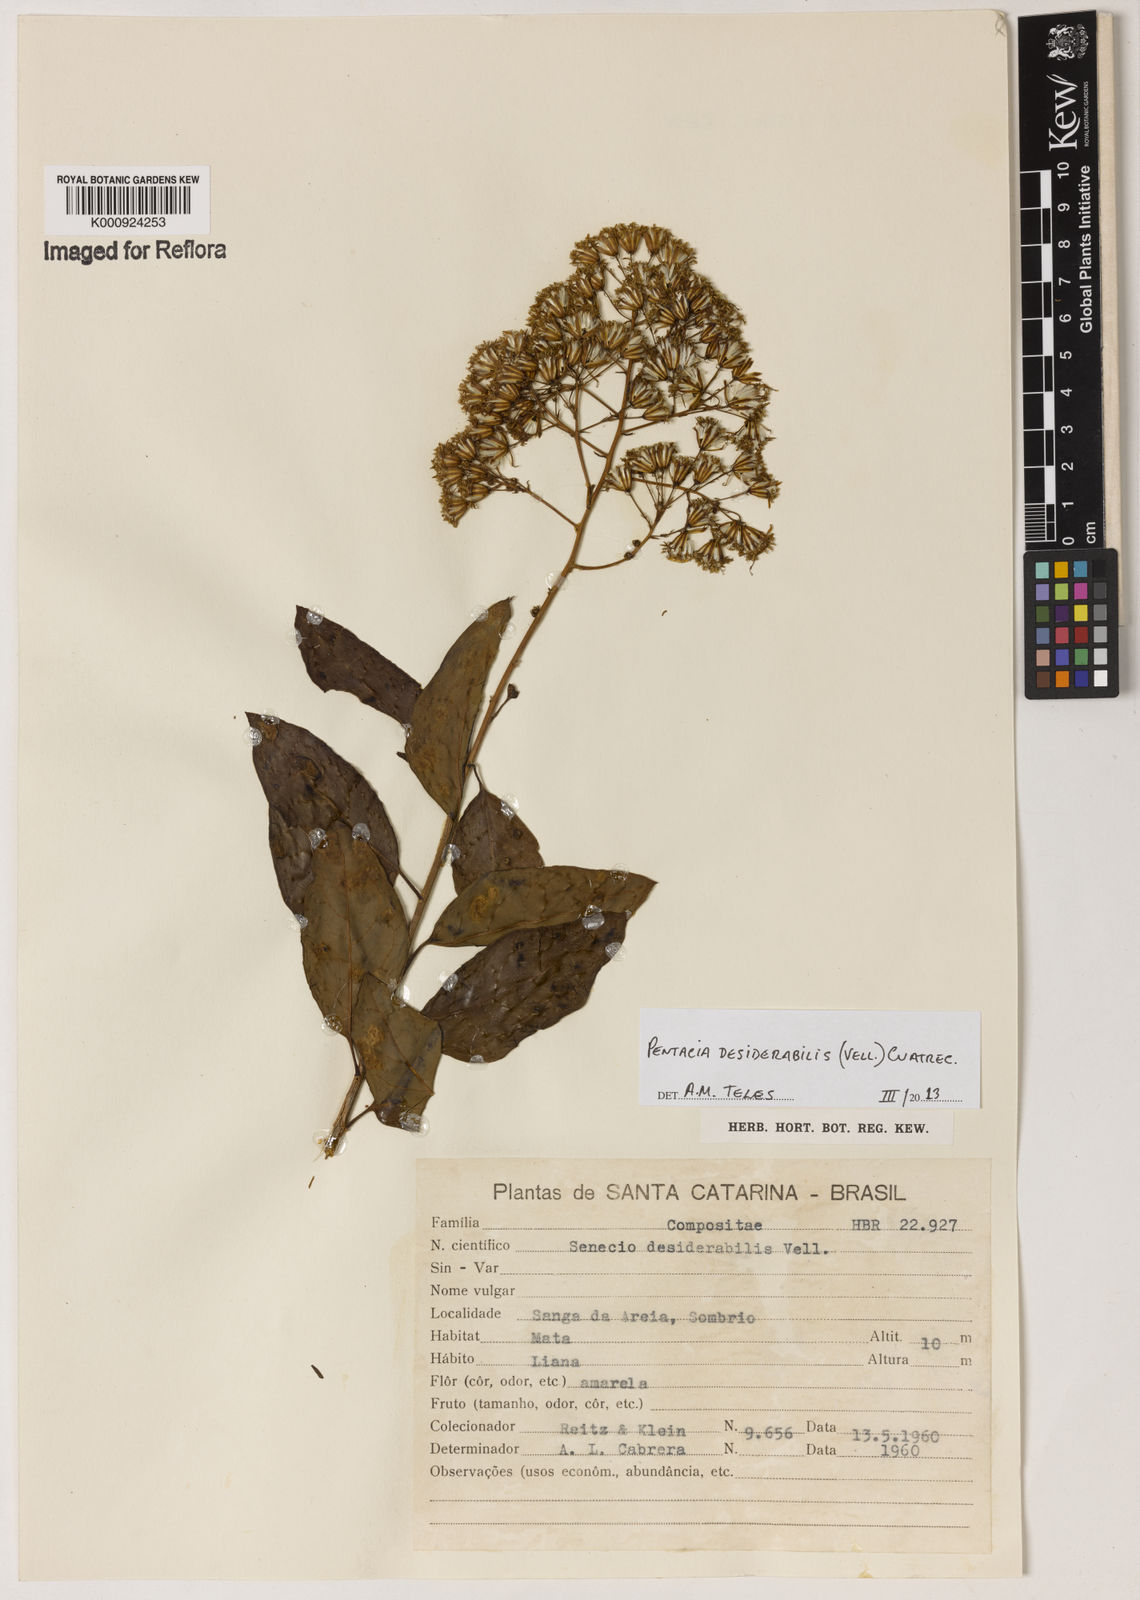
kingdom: Plantae
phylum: Tracheophyta
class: Magnoliopsida
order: Asterales
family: Asteraceae
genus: Pentacalia
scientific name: Pentacalia desiderabilis
